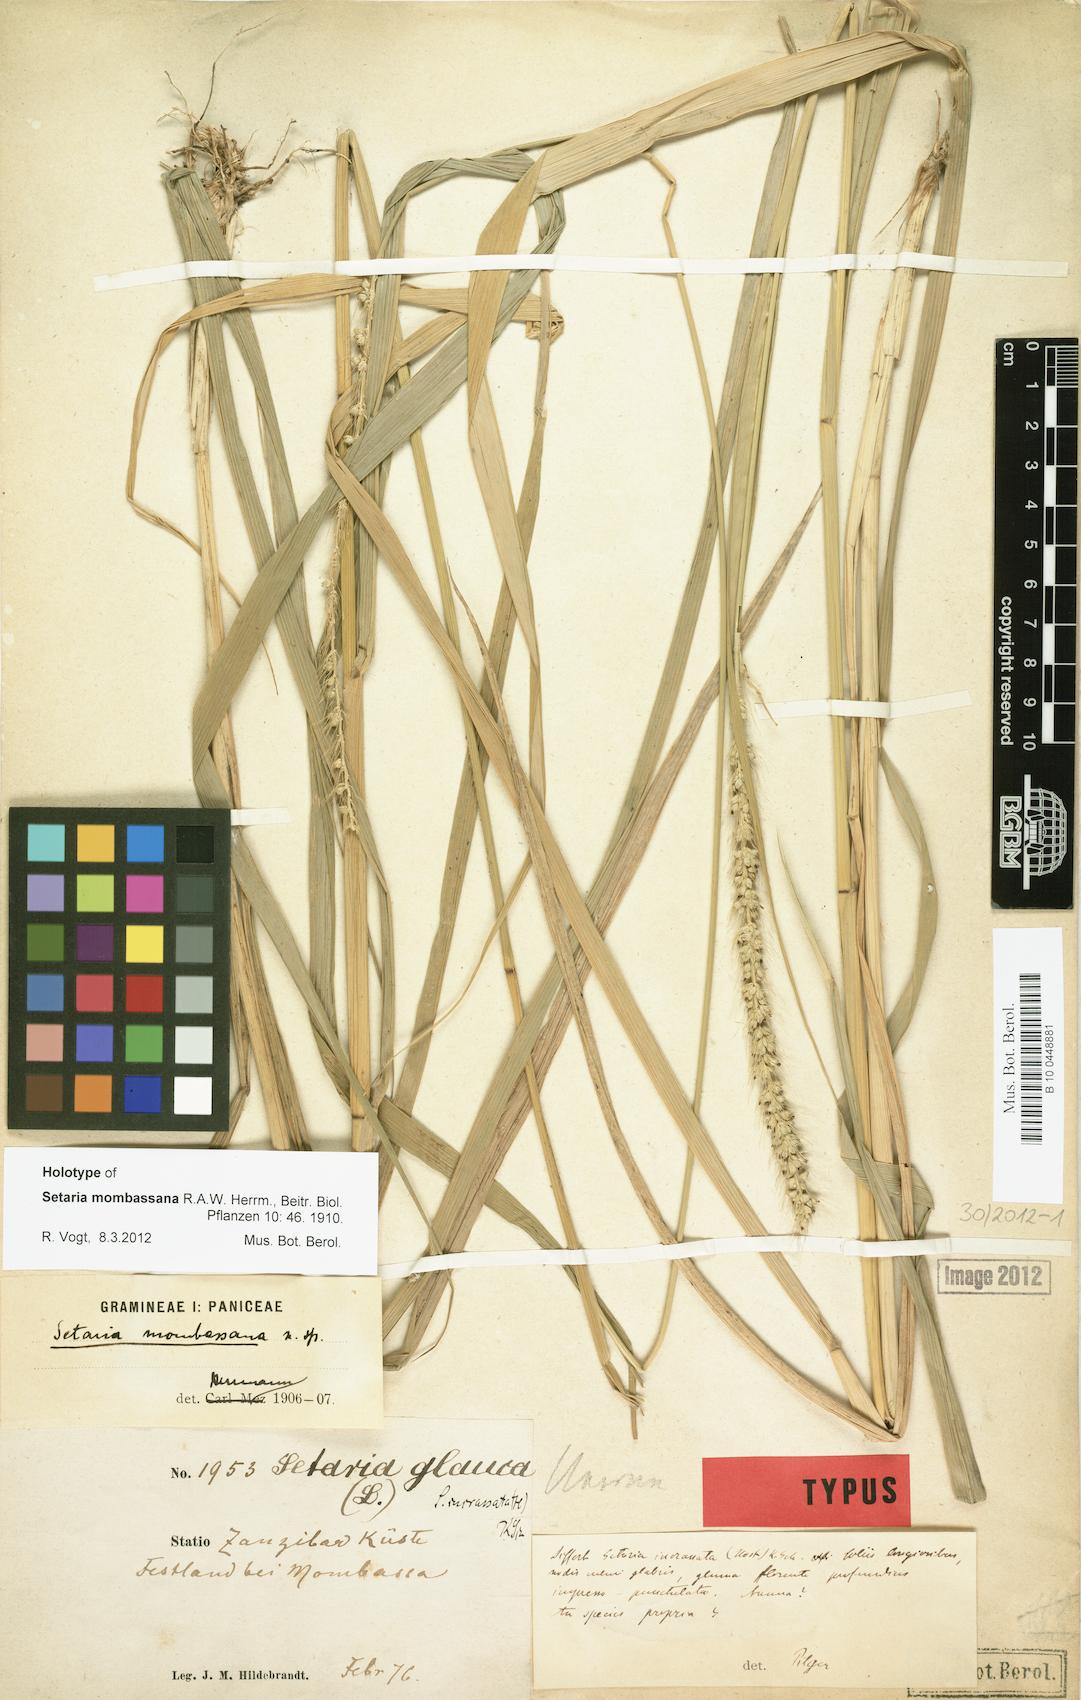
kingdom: Plantae
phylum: Tracheophyta
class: Liliopsida
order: Poales
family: Poaceae
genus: Setaria
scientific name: Setaria incrassata
